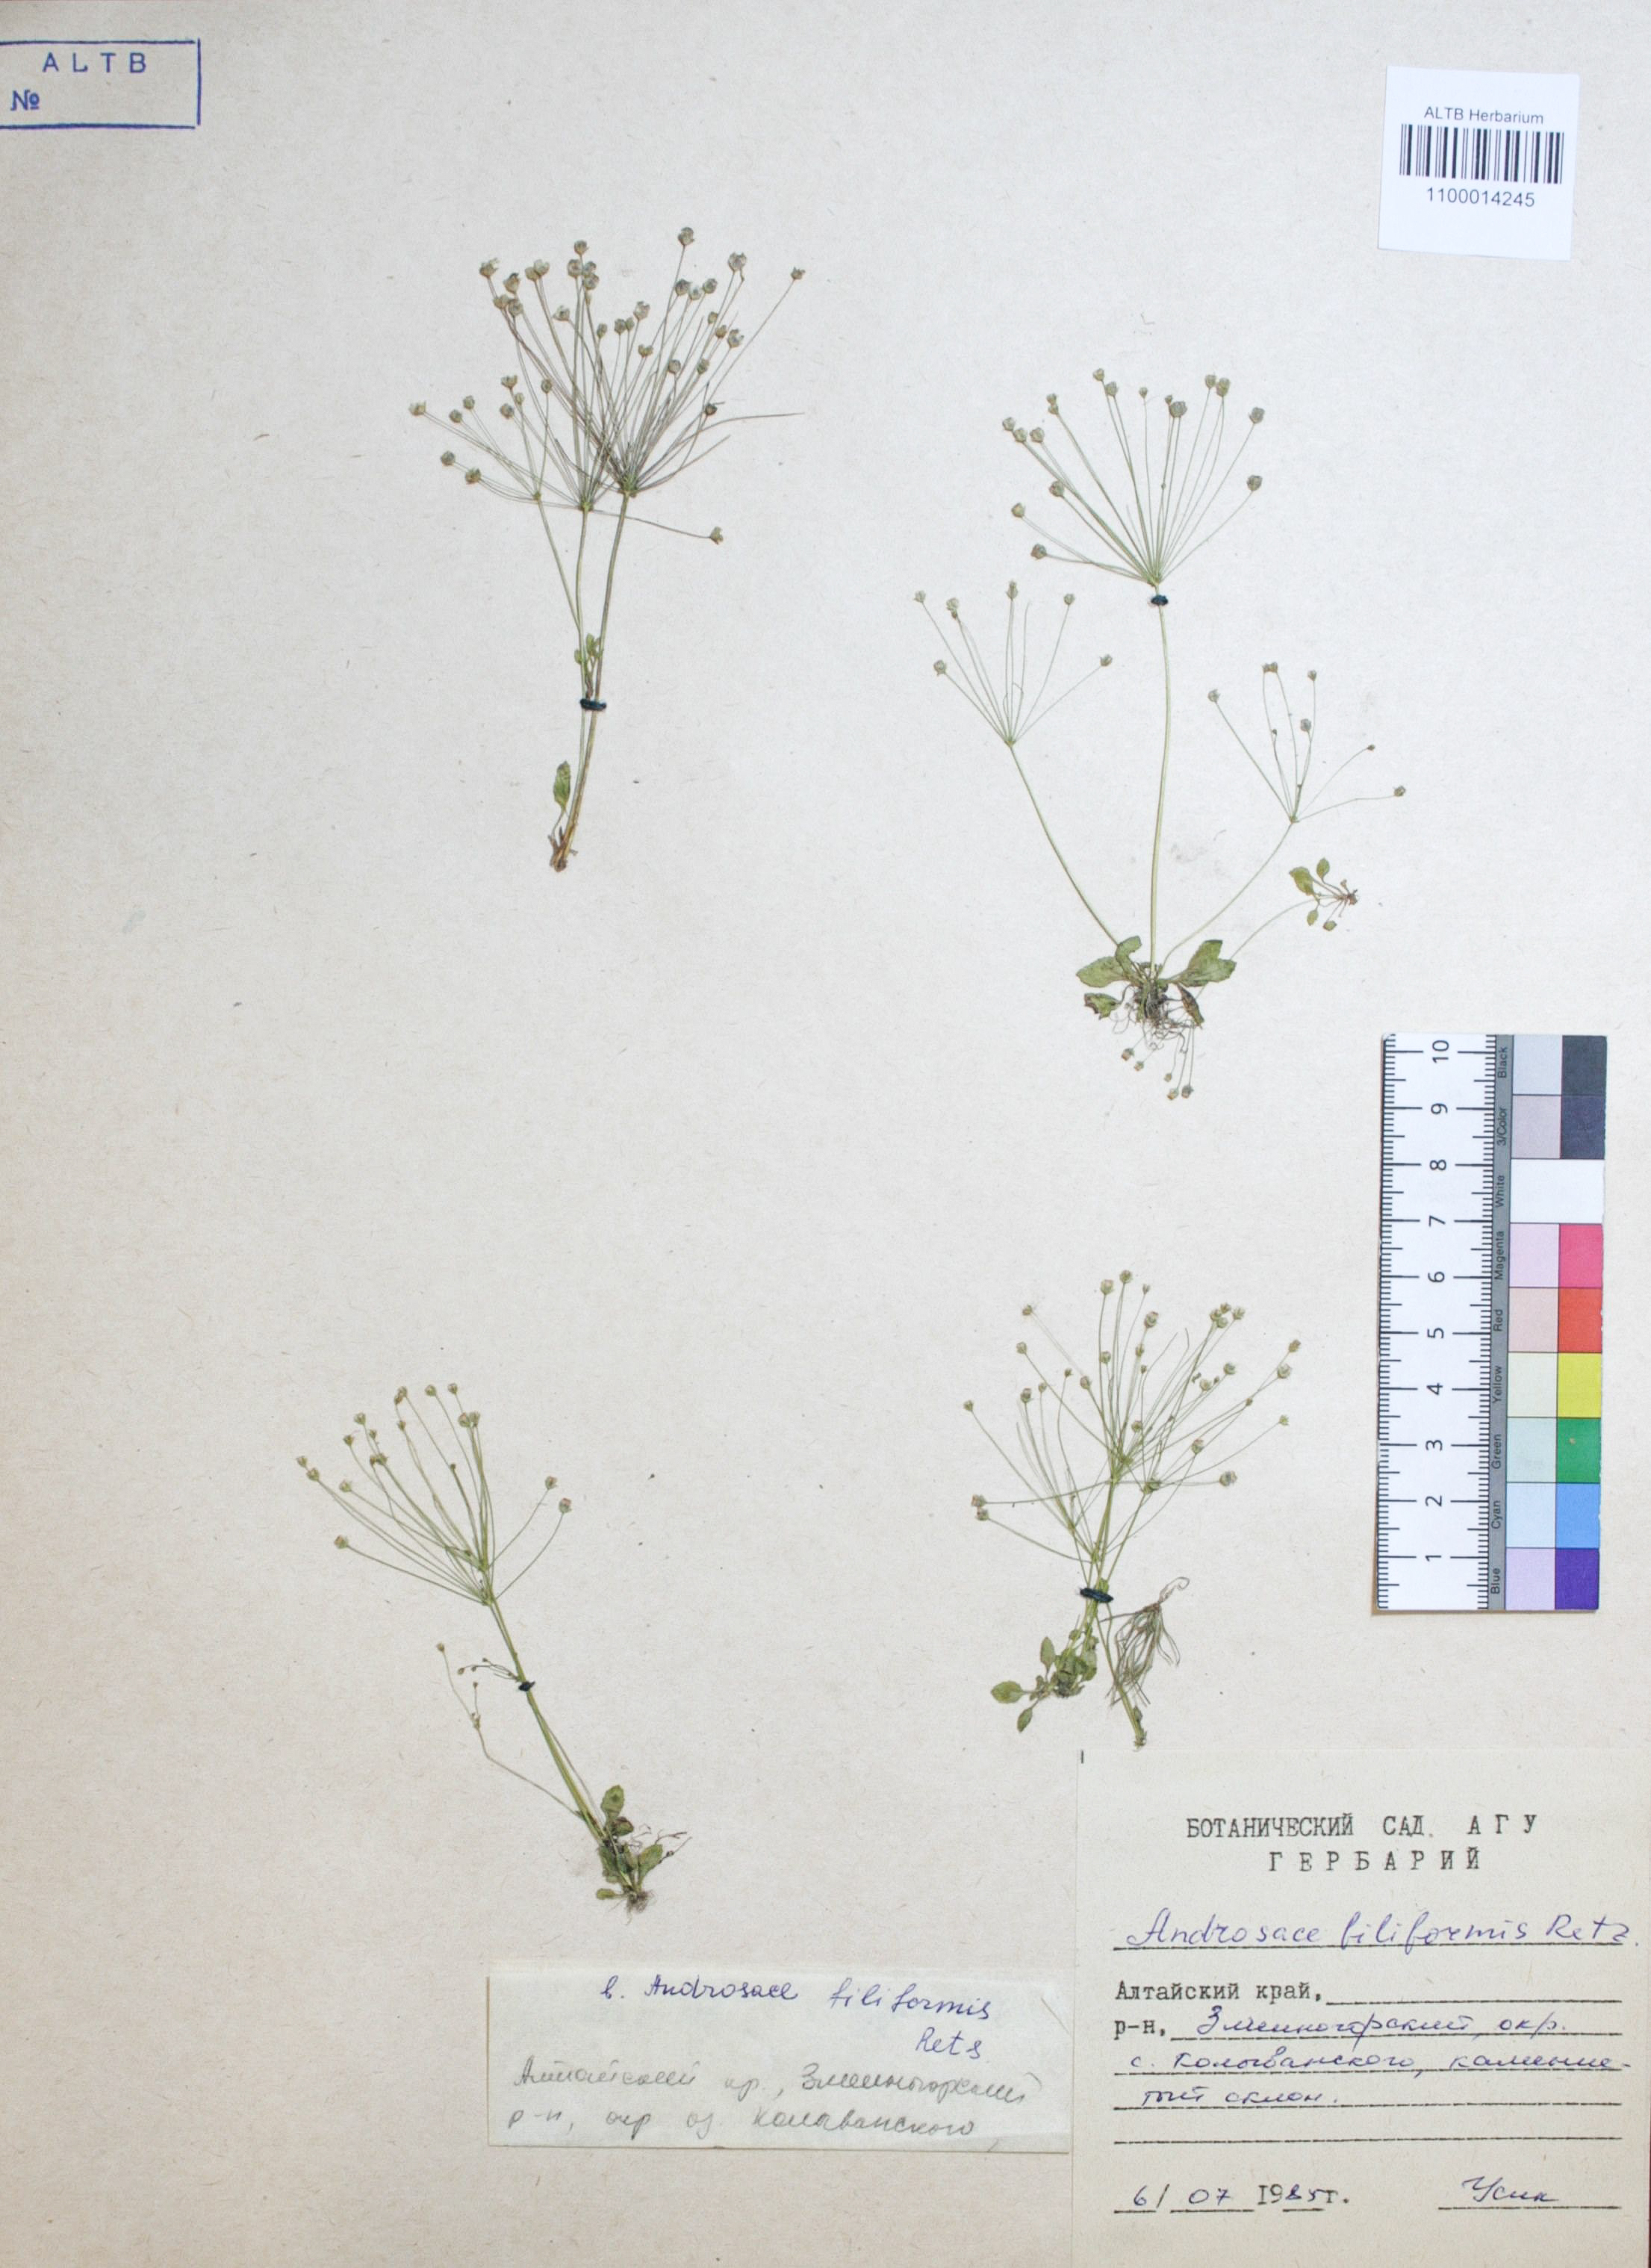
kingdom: Plantae
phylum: Tracheophyta
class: Magnoliopsida
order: Ericales
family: Primulaceae
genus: Androsace
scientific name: Androsace filiformis
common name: Filiform rock jasmine
